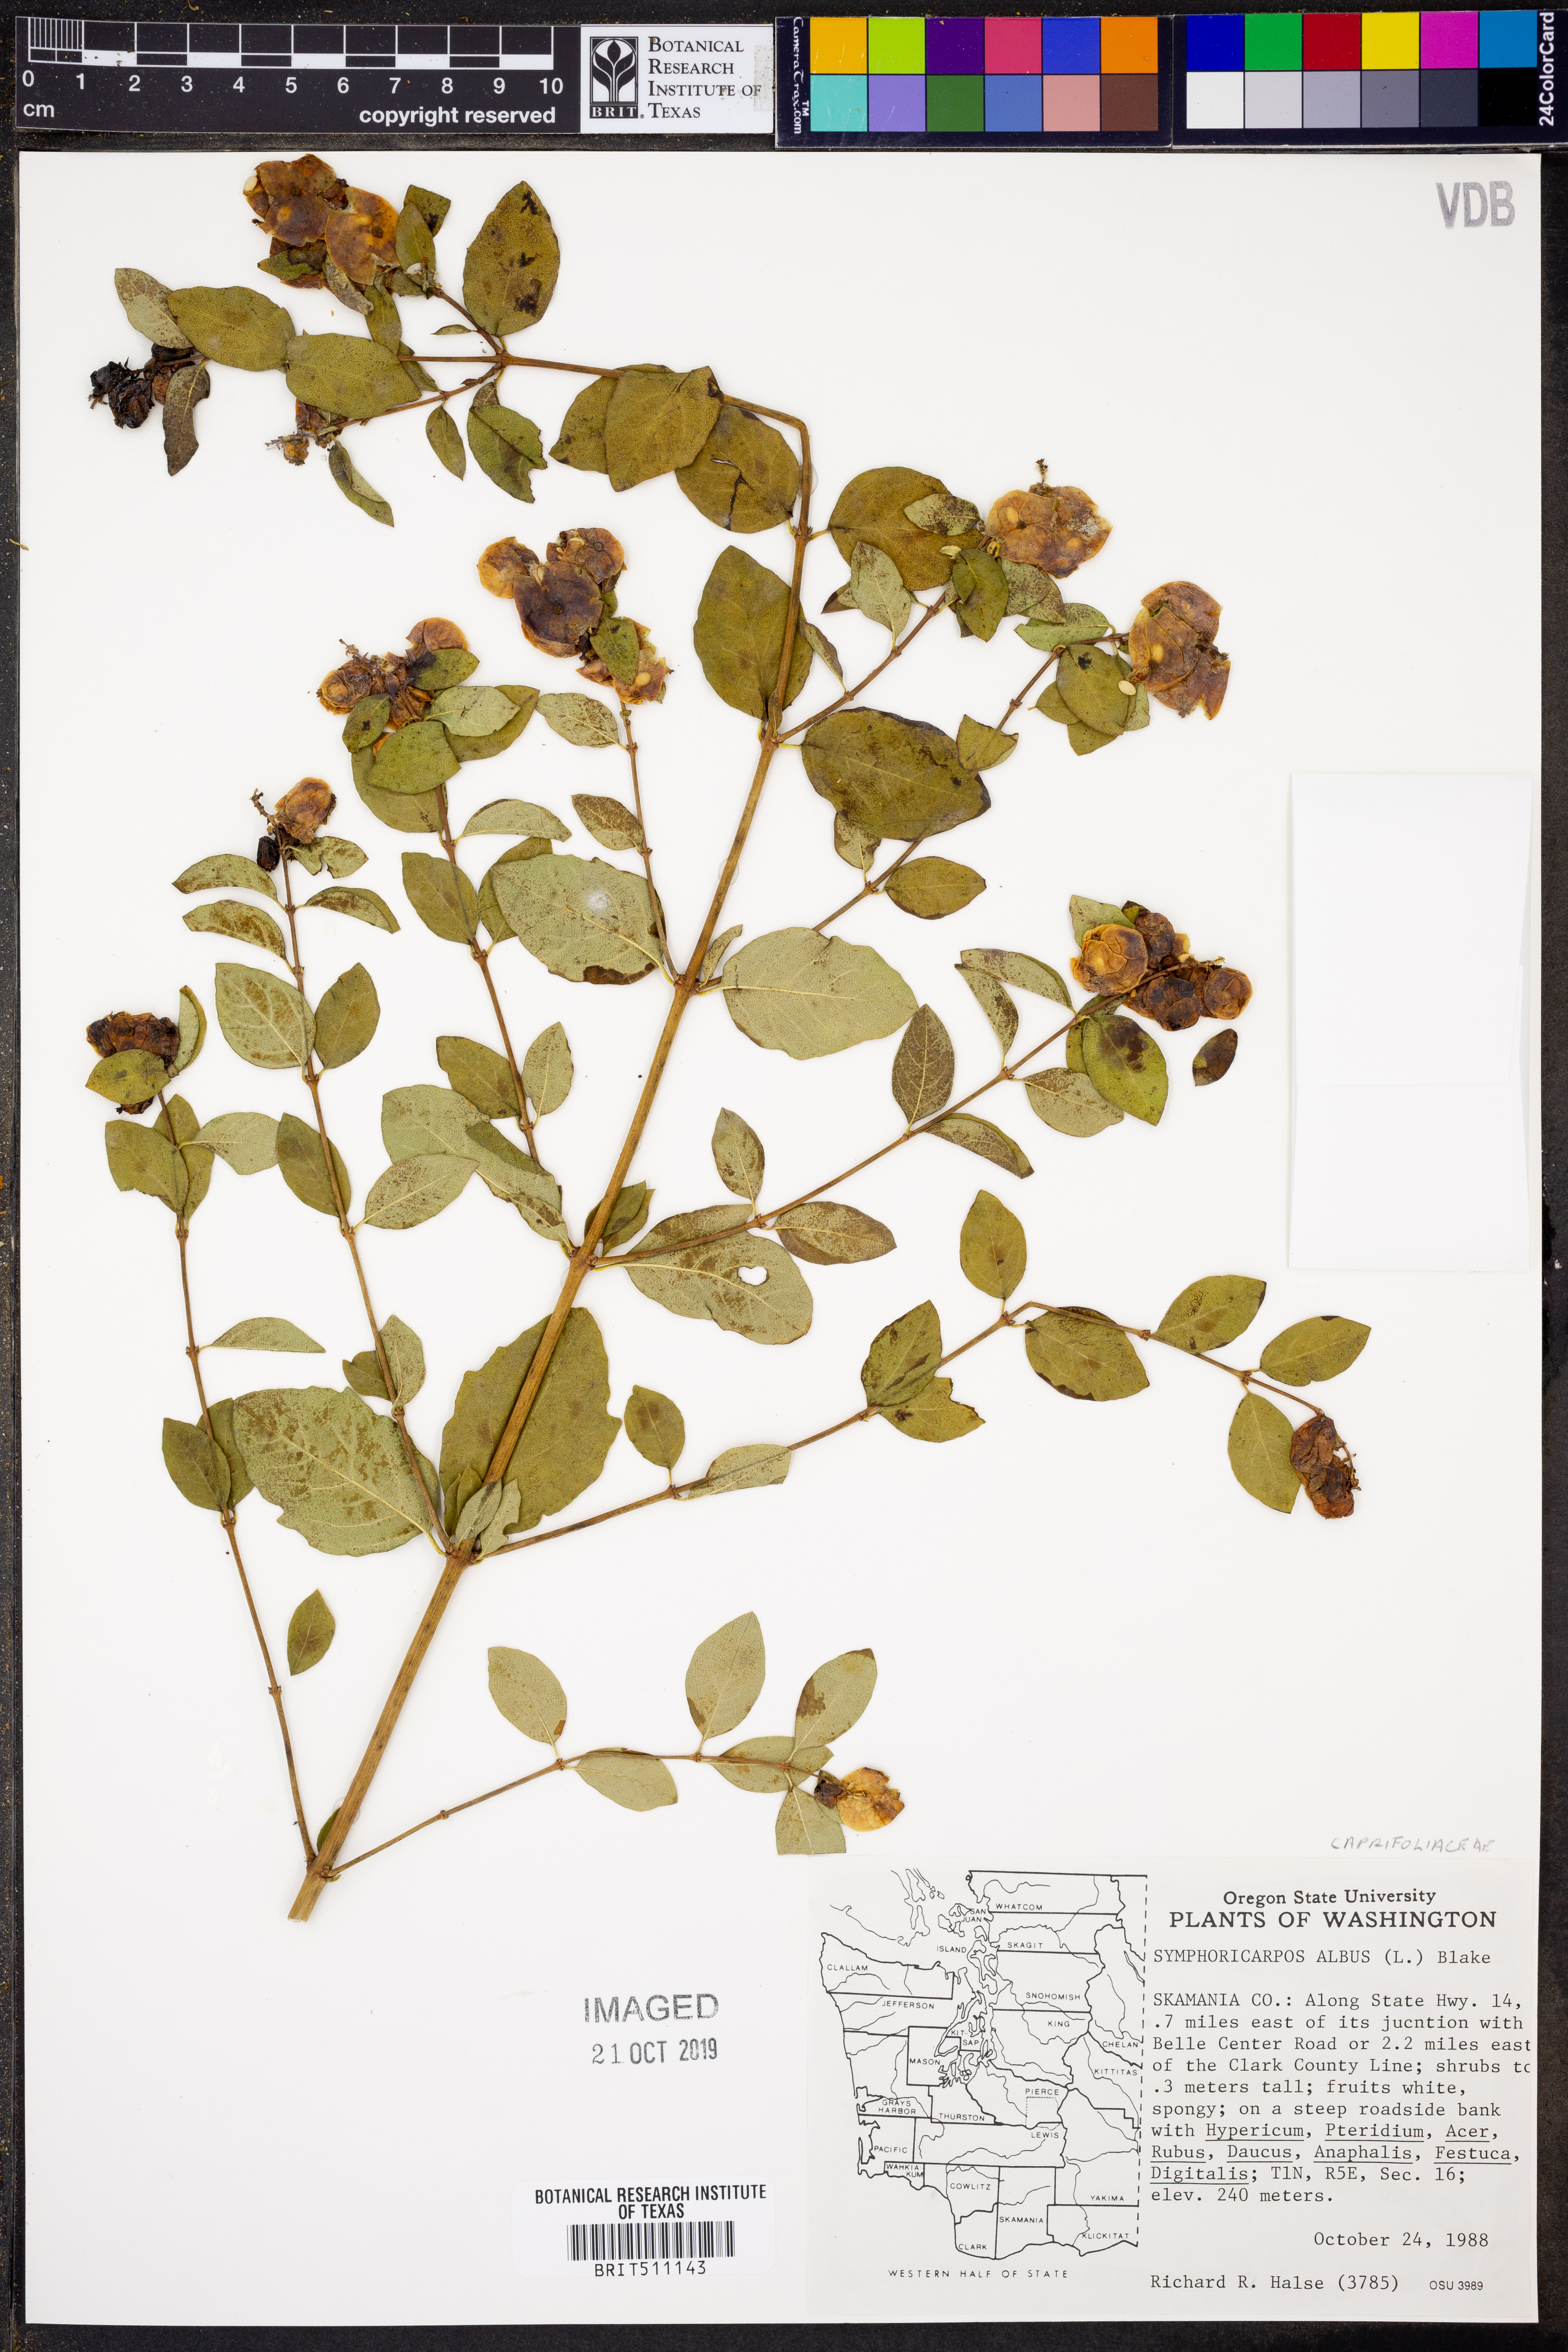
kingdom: Plantae
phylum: Tracheophyta
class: Magnoliopsida
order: Dipsacales
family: Caprifoliaceae
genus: Symphoricarpos
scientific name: Symphoricarpos albus
